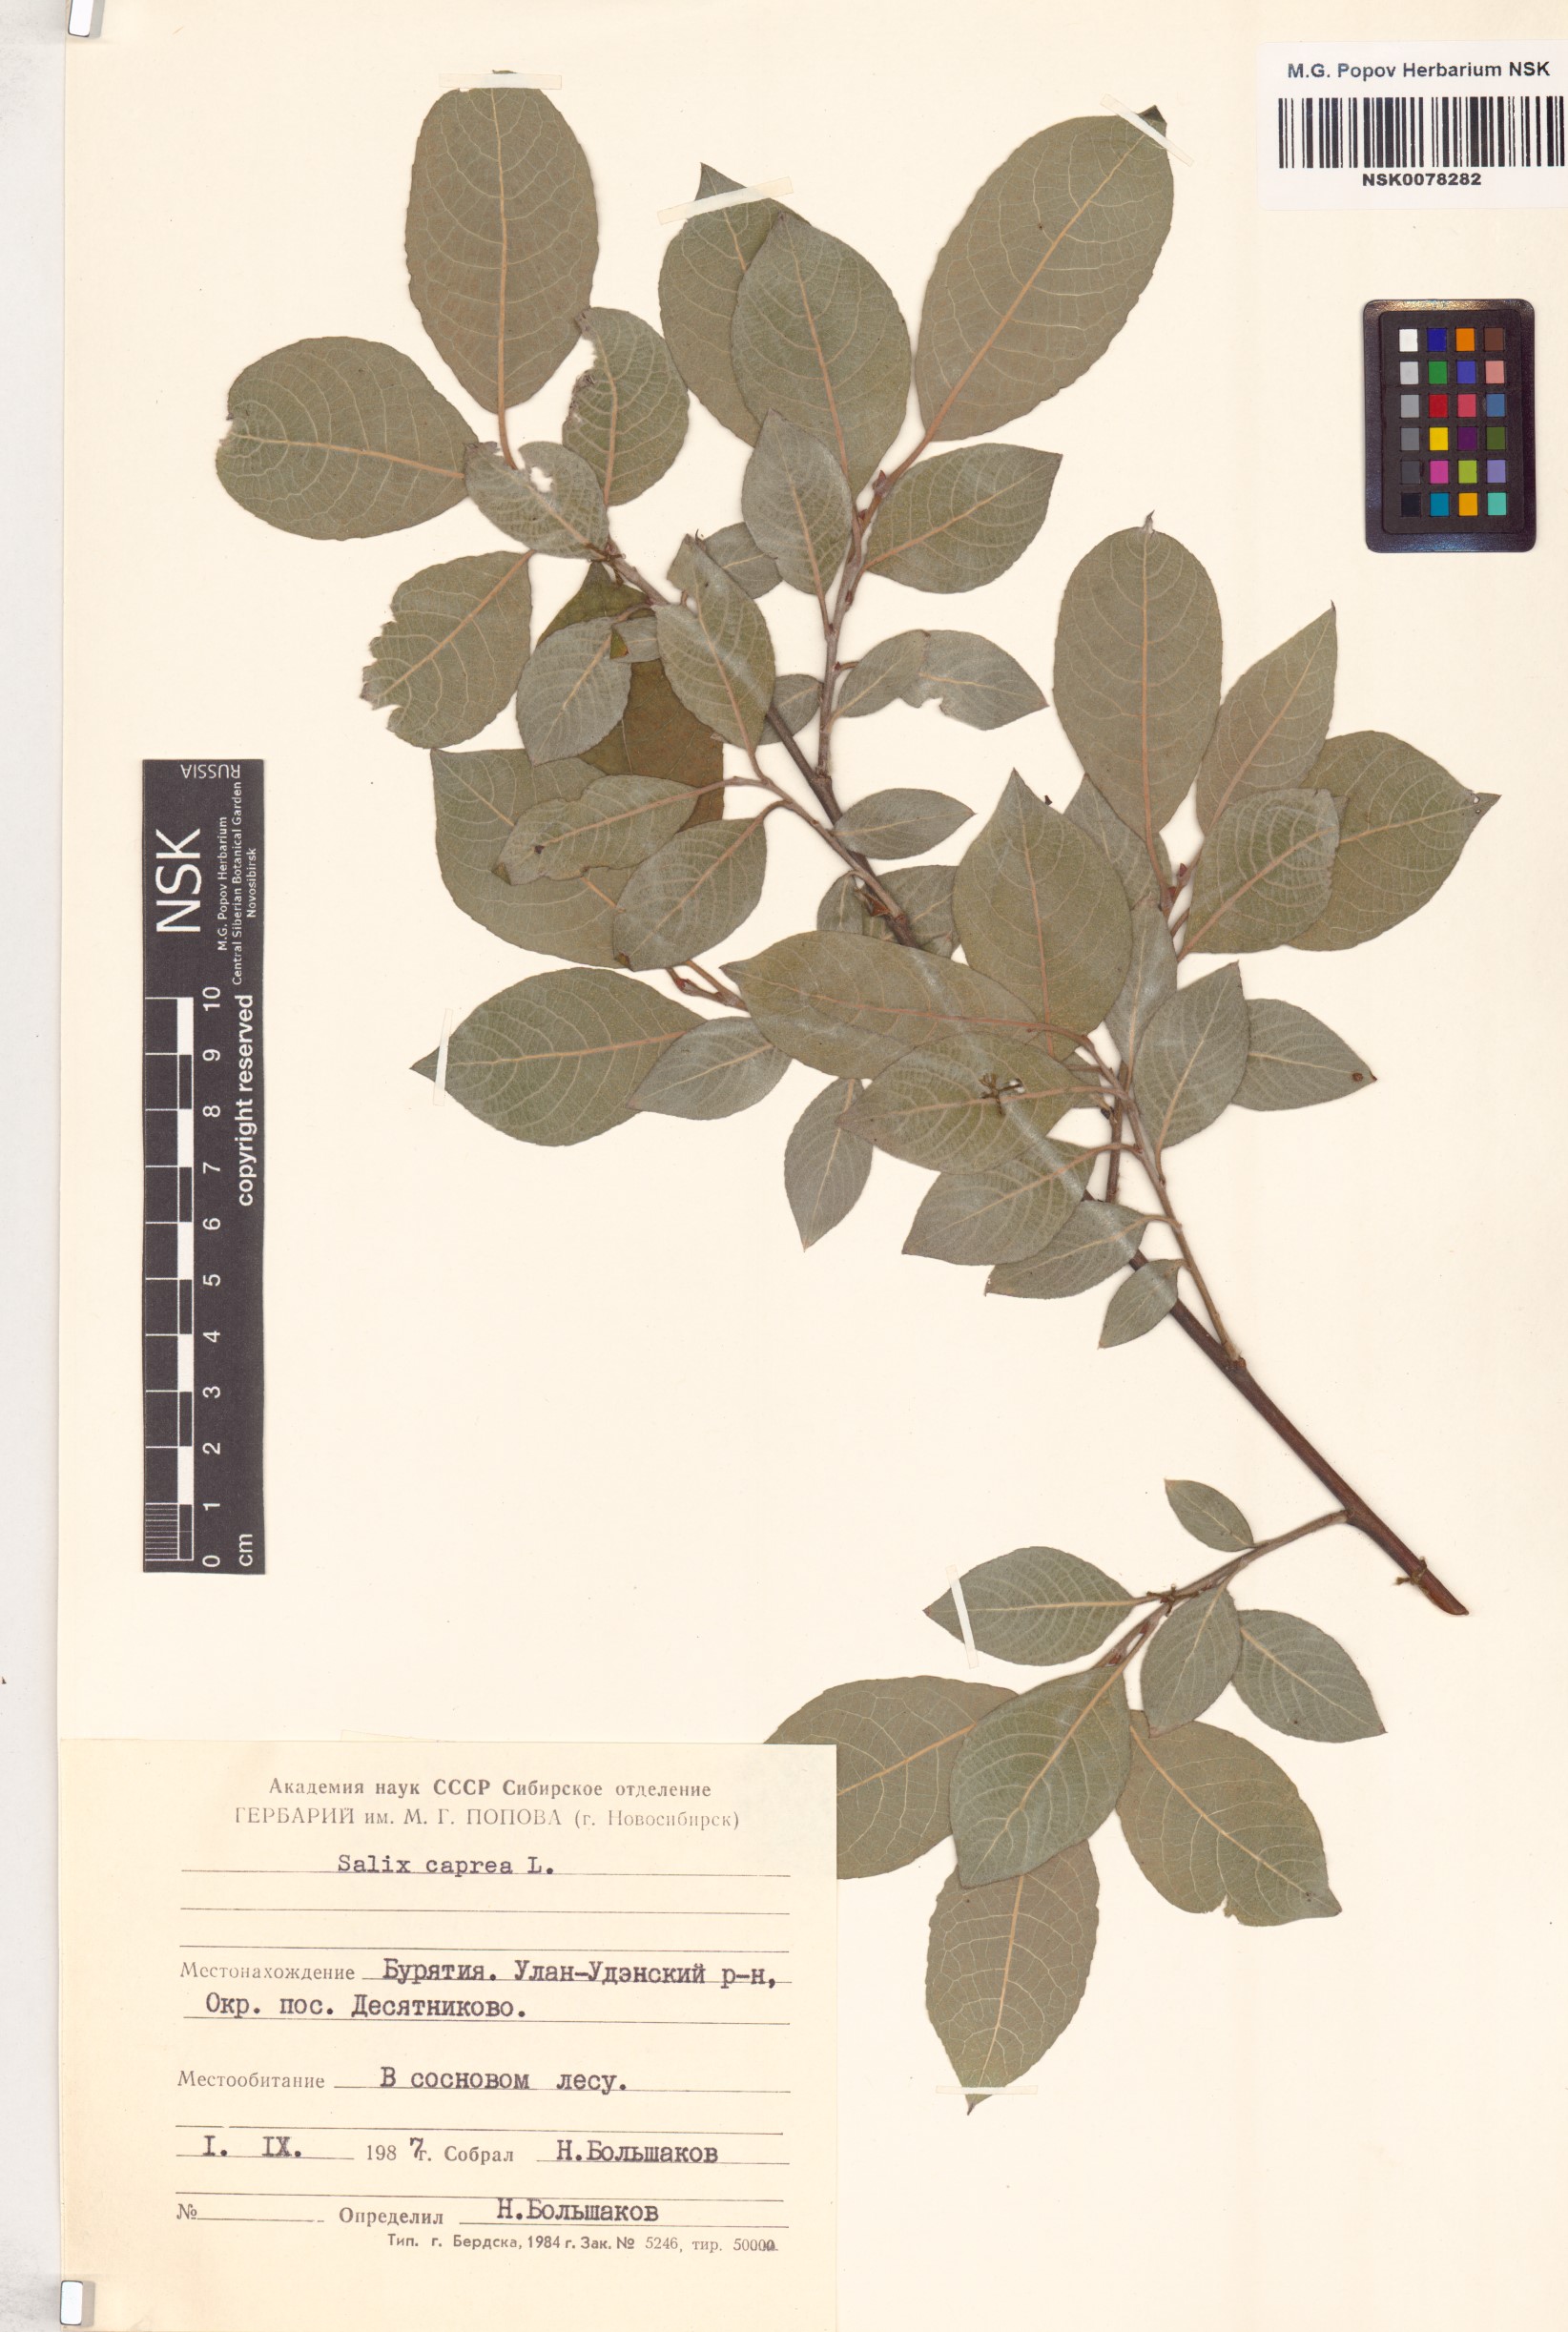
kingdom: Plantae
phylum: Tracheophyta
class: Magnoliopsida
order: Malpighiales
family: Salicaceae
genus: Salix
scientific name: Salix caprea
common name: Goat willow
